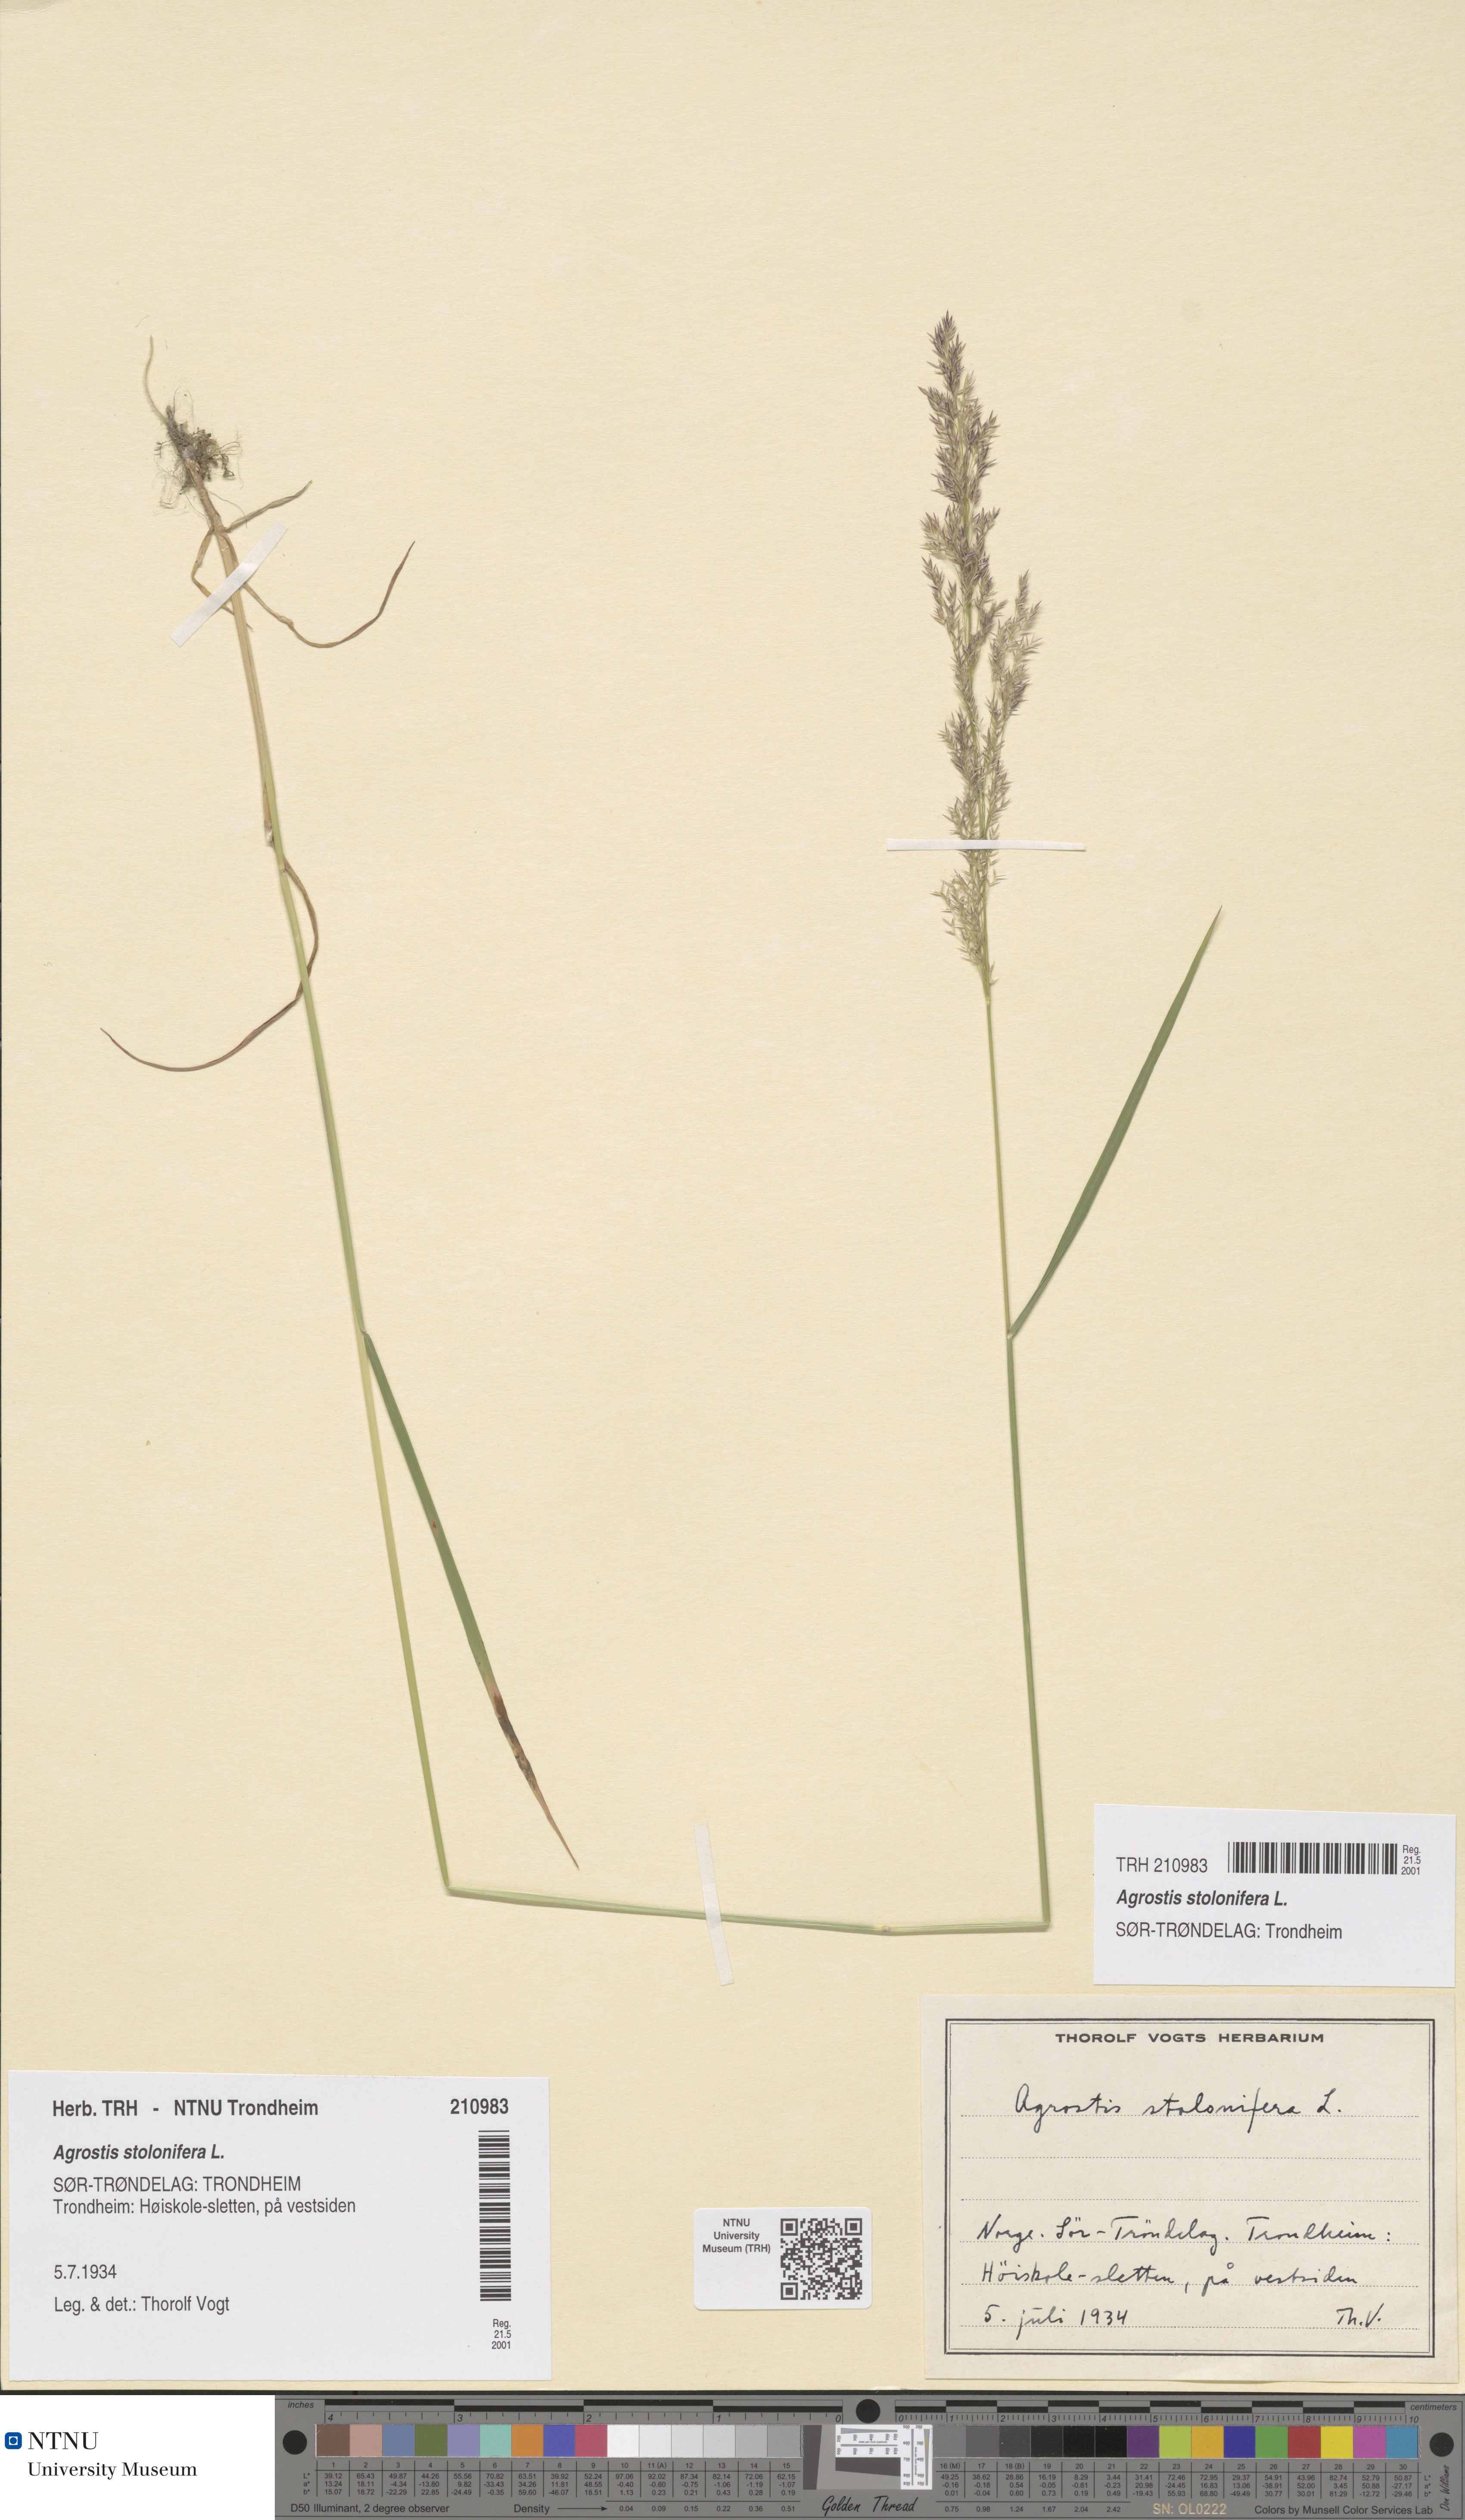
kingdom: Plantae
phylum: Tracheophyta
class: Liliopsida
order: Poales
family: Poaceae
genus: Agrostis
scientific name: Agrostis stolonifera
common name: Creeping bentgrass
